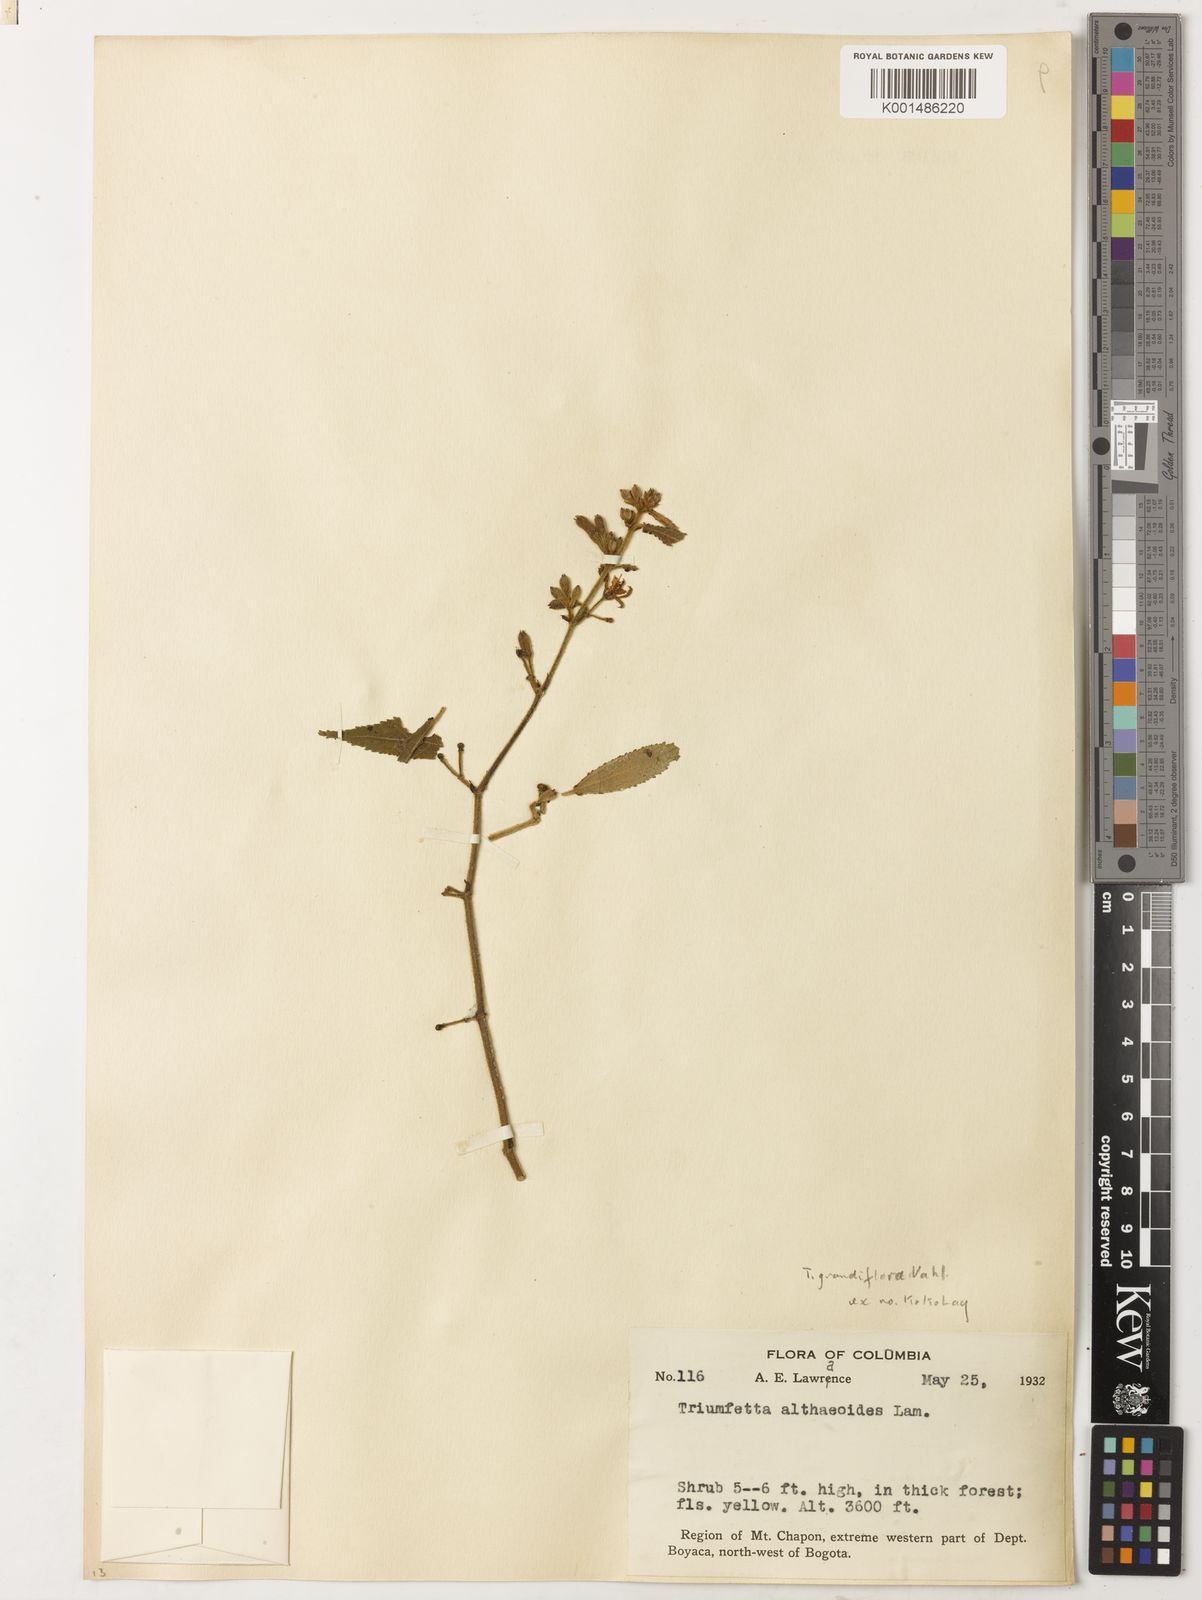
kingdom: Plantae
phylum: Tracheophyta
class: Magnoliopsida
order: Malvales
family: Malvaceae
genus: Triumfetta
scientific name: Triumfetta grandiflora
